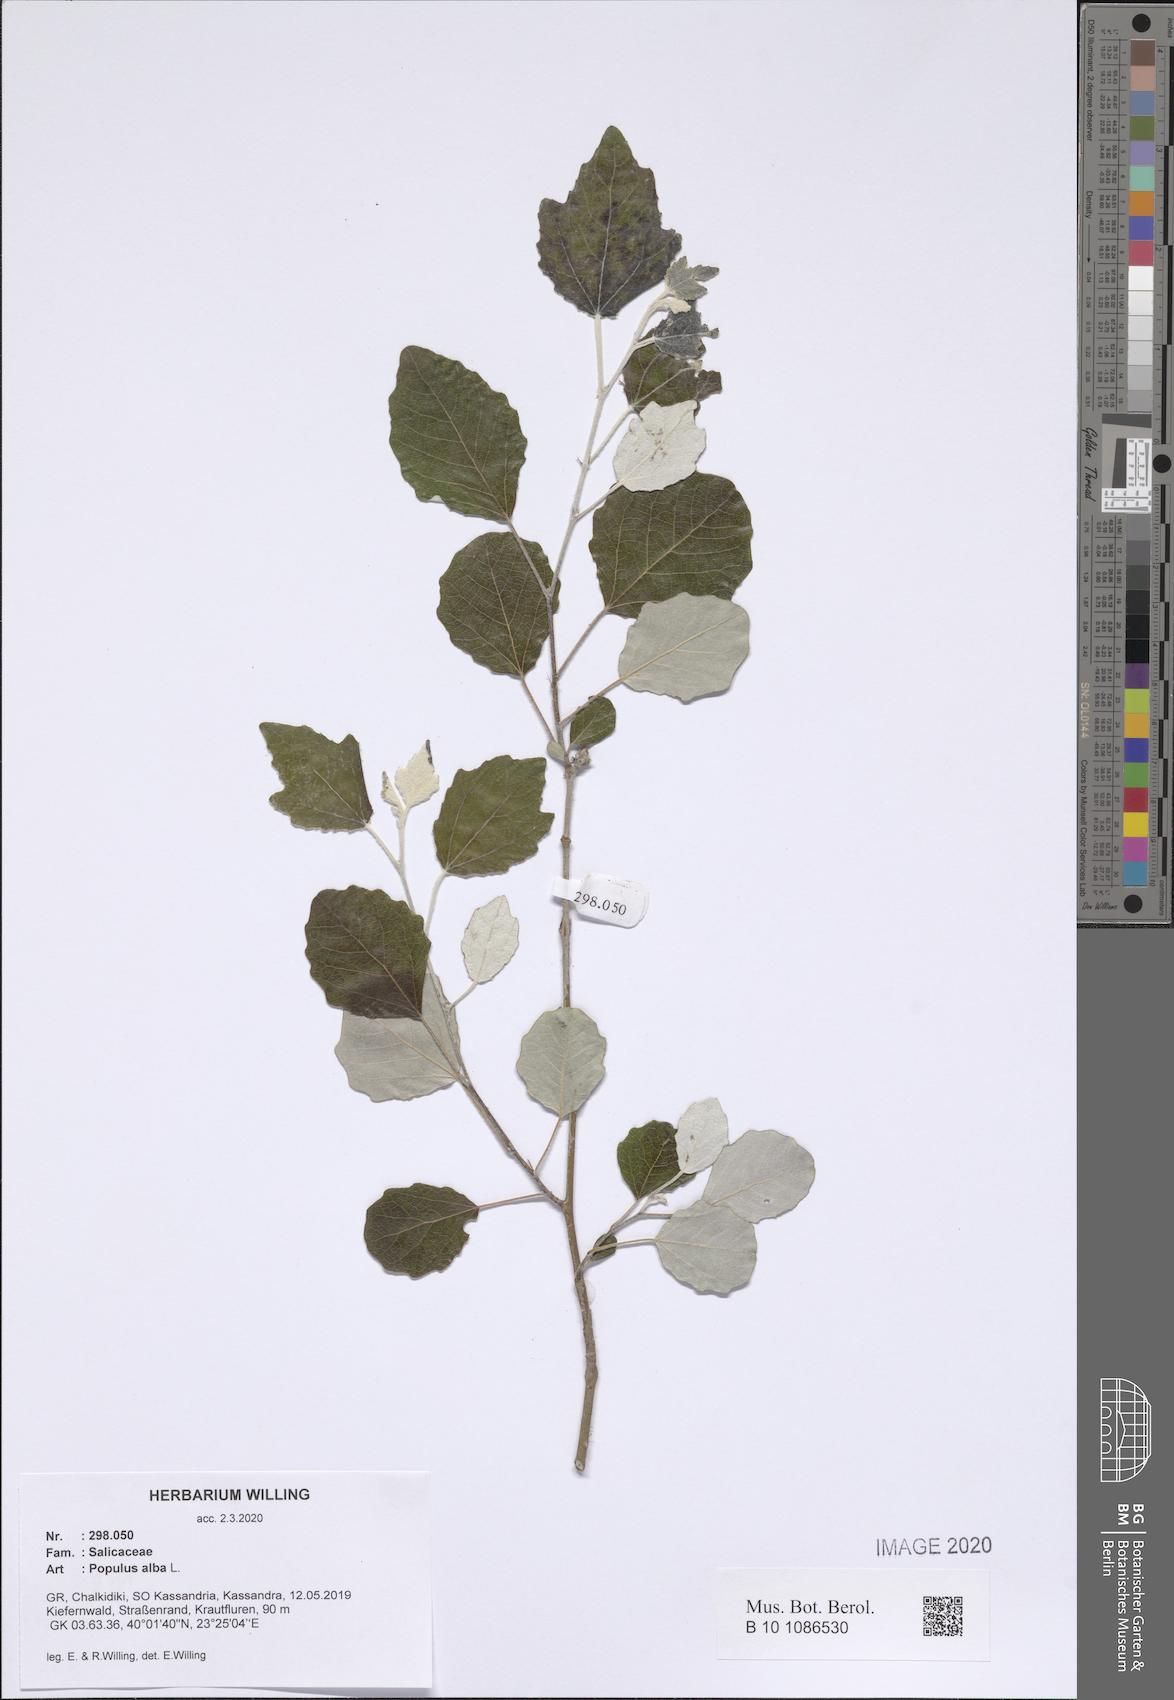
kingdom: Plantae
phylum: Tracheophyta
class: Magnoliopsida
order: Malpighiales
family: Salicaceae
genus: Populus
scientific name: Populus alba
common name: White poplar
